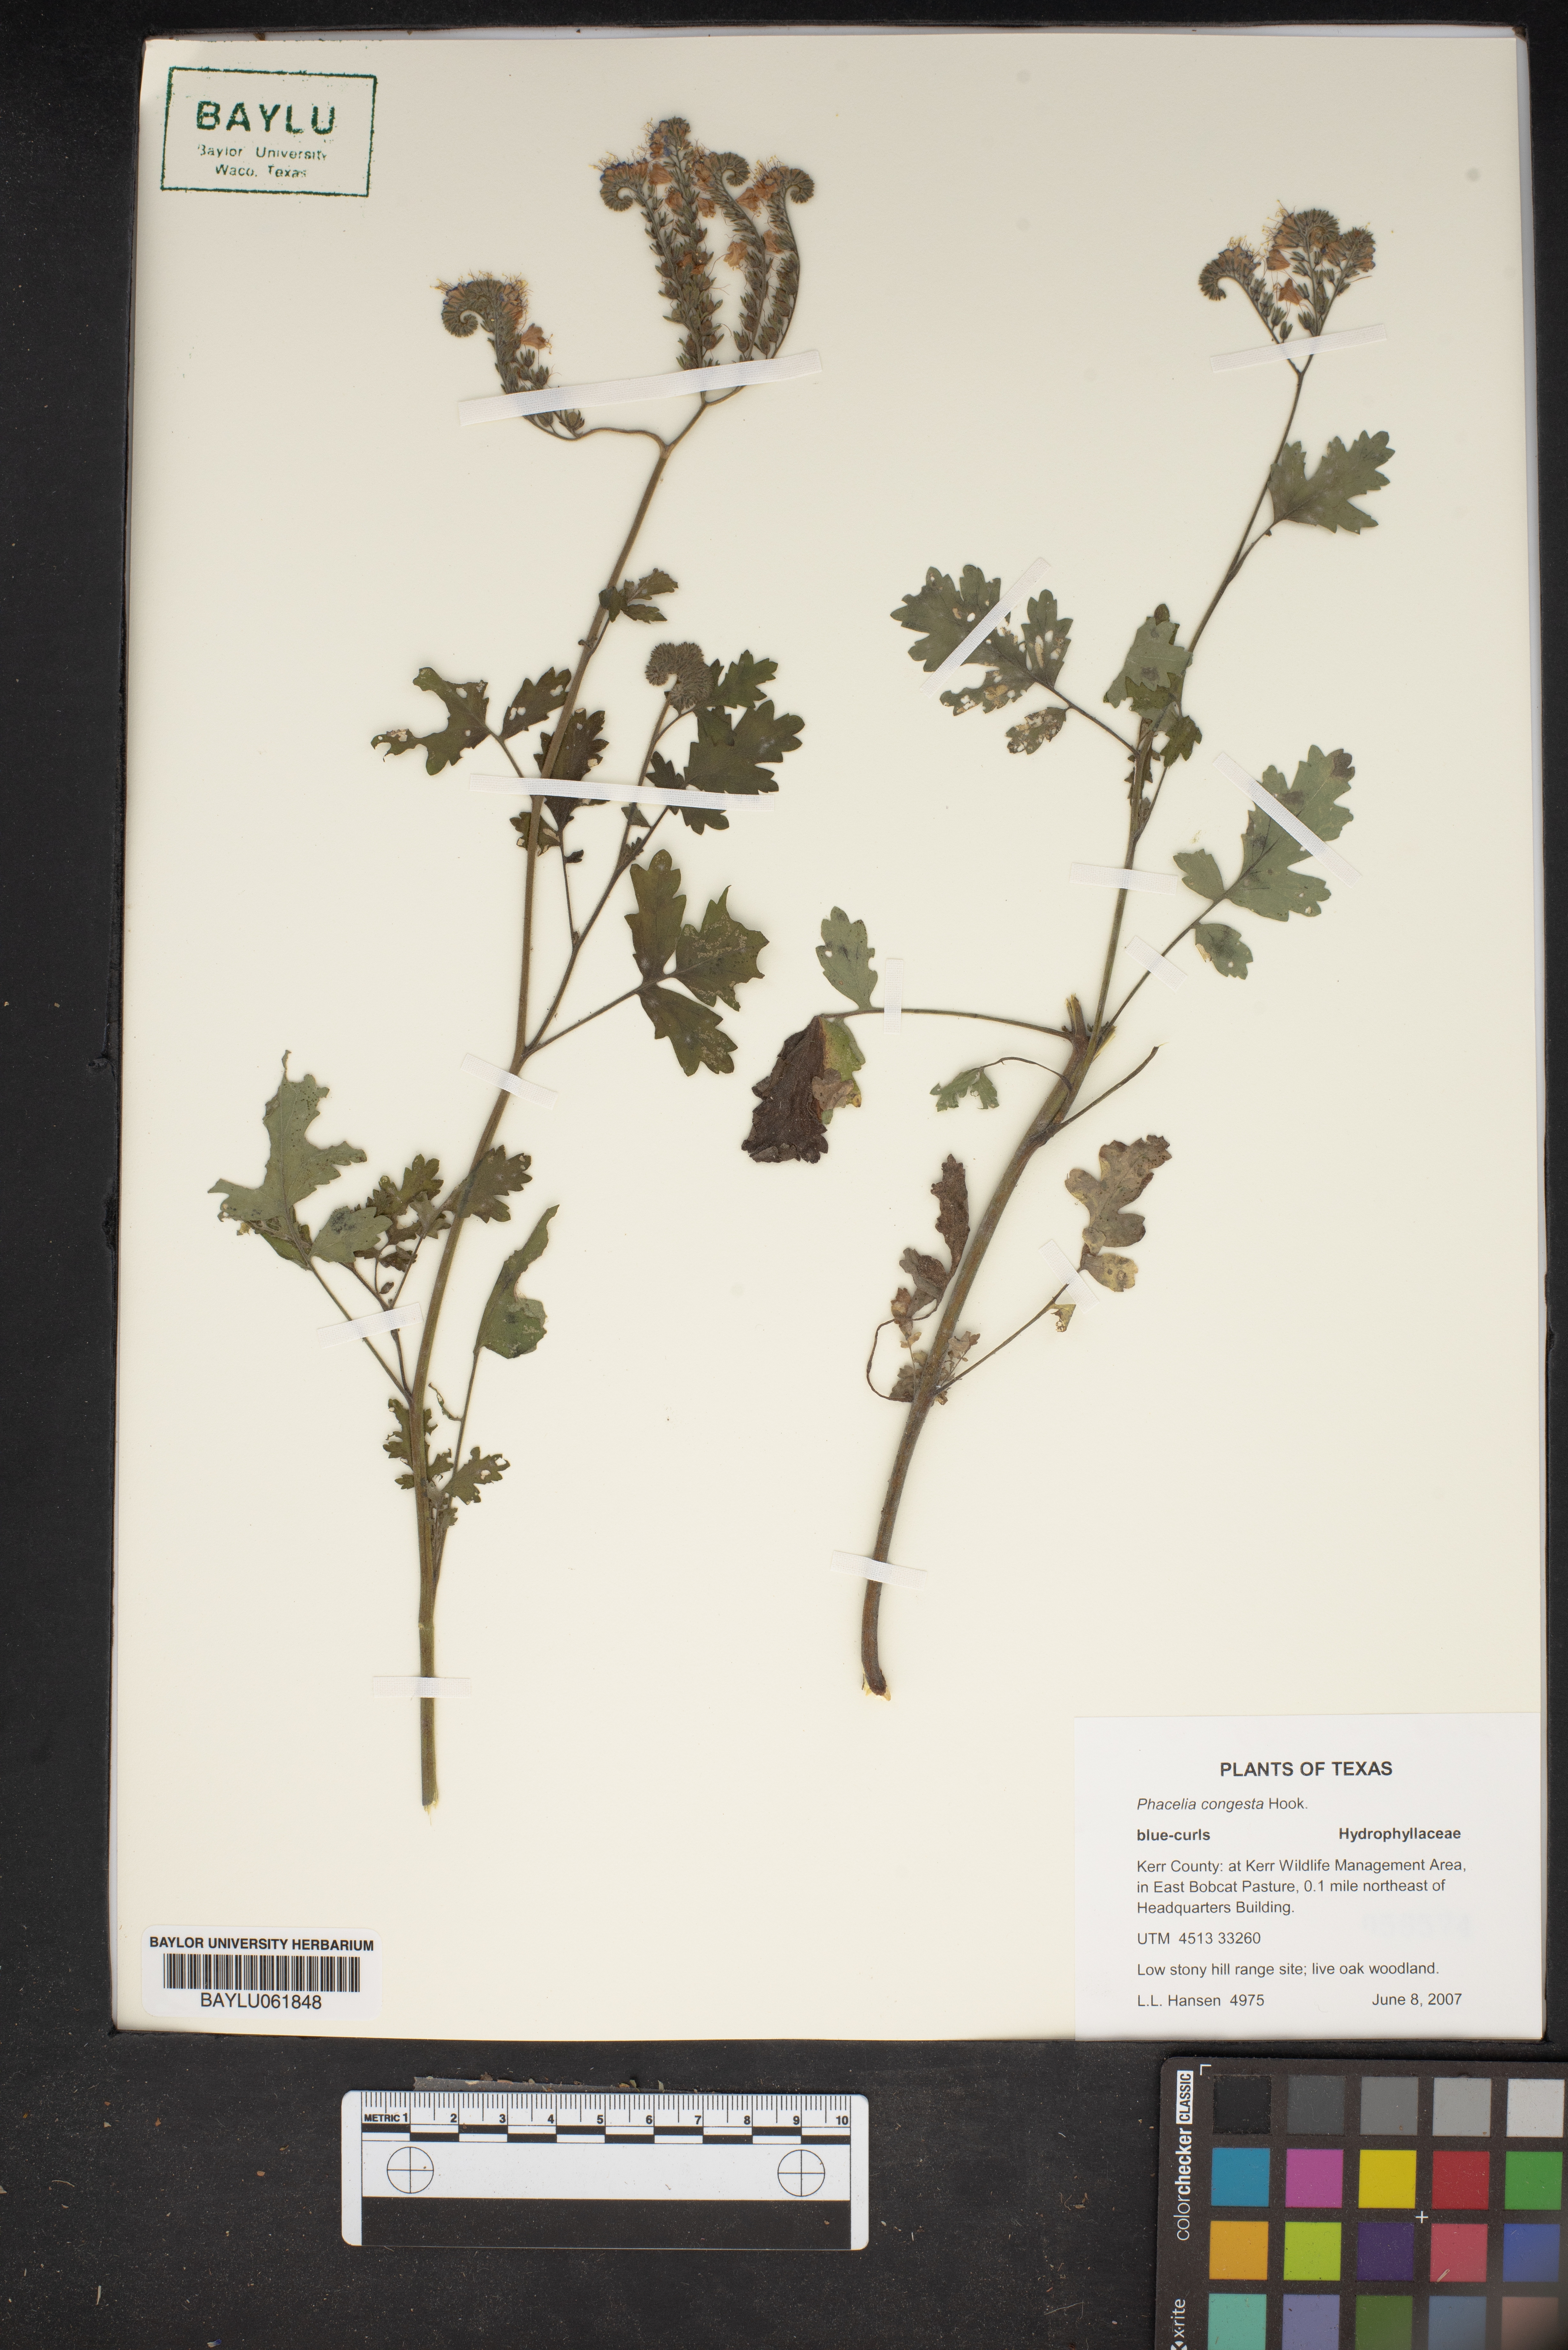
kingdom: Plantae
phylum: Tracheophyta
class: Magnoliopsida
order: Boraginales
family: Hydrophyllaceae
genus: Phacelia
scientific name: Phacelia congesta
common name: Blue curls
